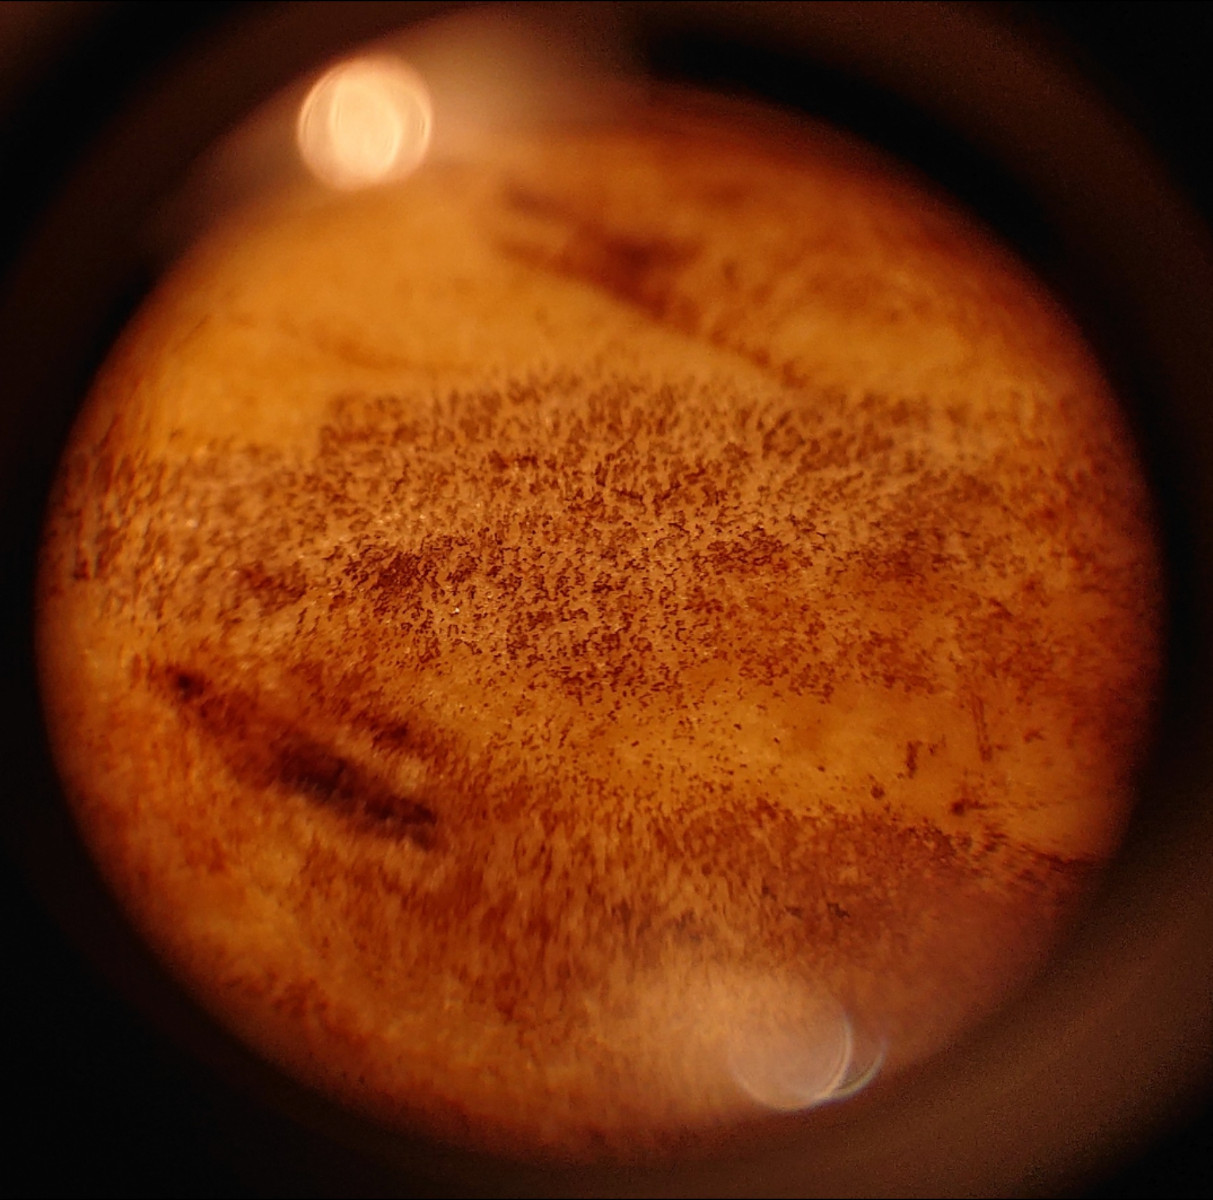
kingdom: Fungi
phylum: Basidiomycota
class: Agaricomycetes
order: Boletales
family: Boletaceae
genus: Neoboletus
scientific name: Neoboletus praestigiator
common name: gul indigorørhat
